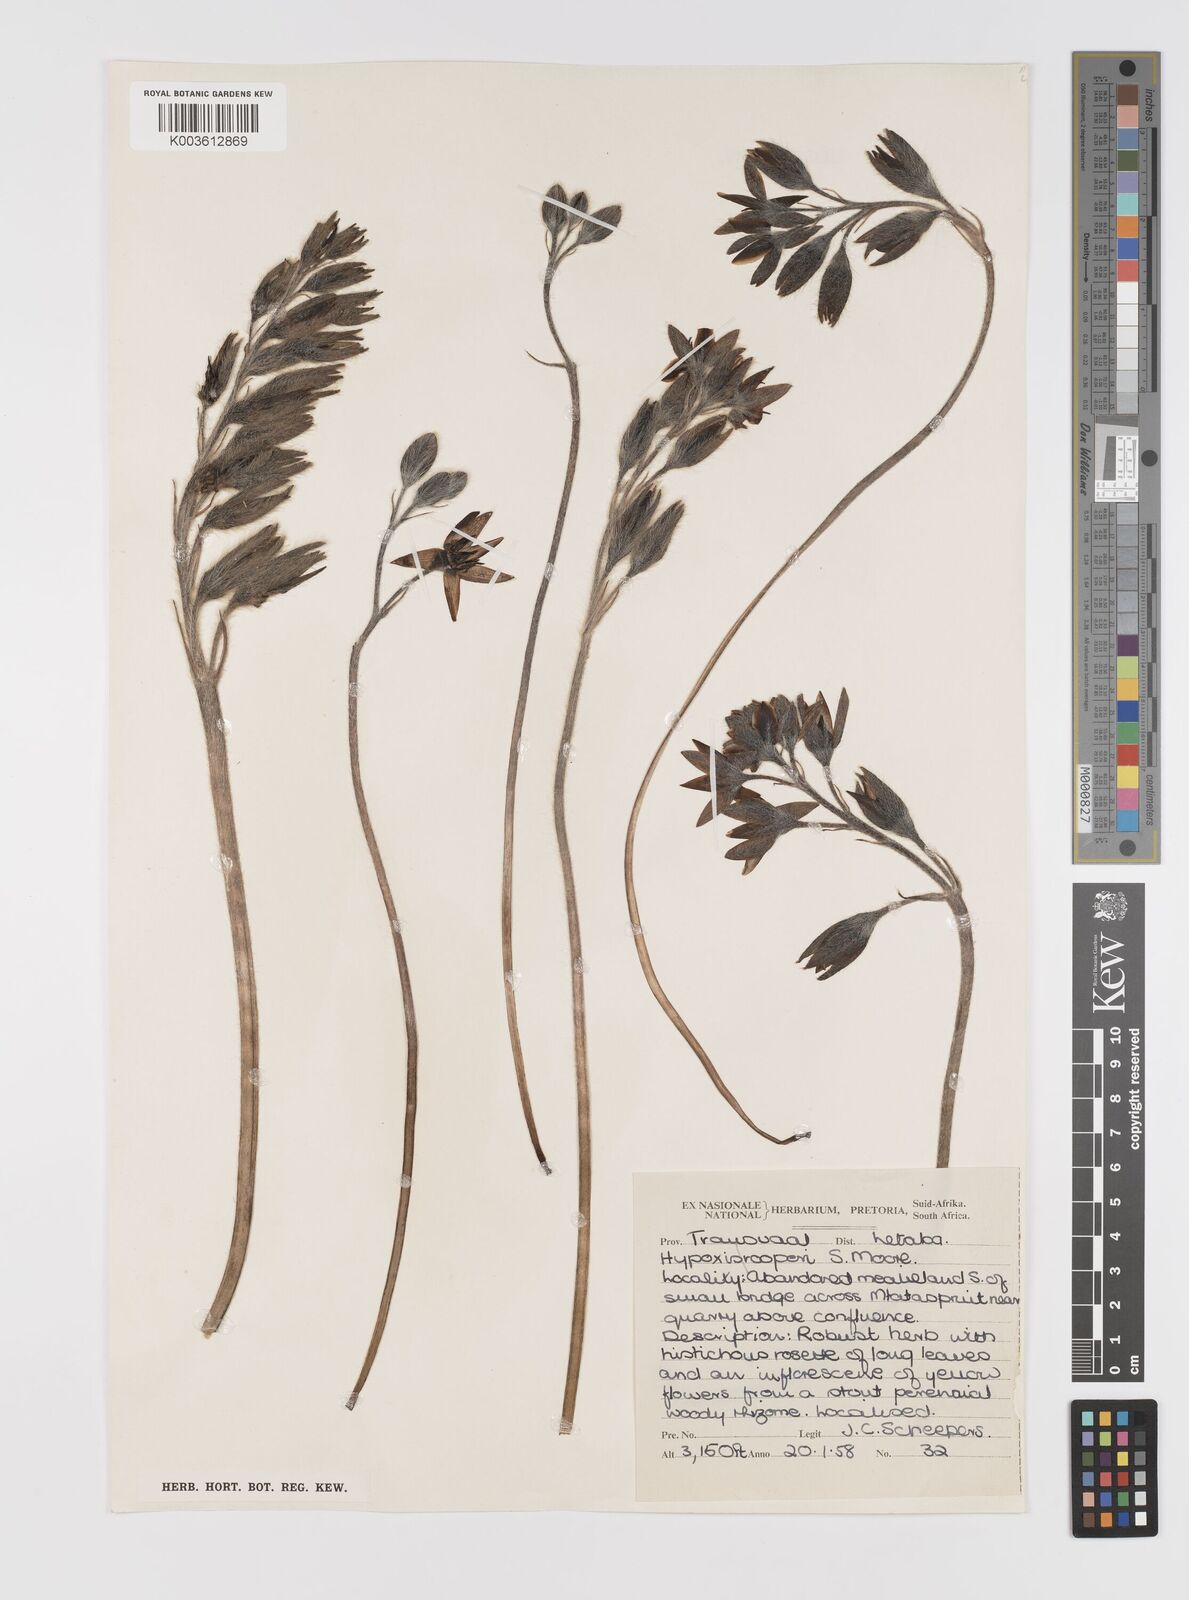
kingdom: Plantae
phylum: Tracheophyta
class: Liliopsida
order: Asparagales
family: Hypoxidaceae
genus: Hypoxis
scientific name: Hypoxis hemerocallidea
